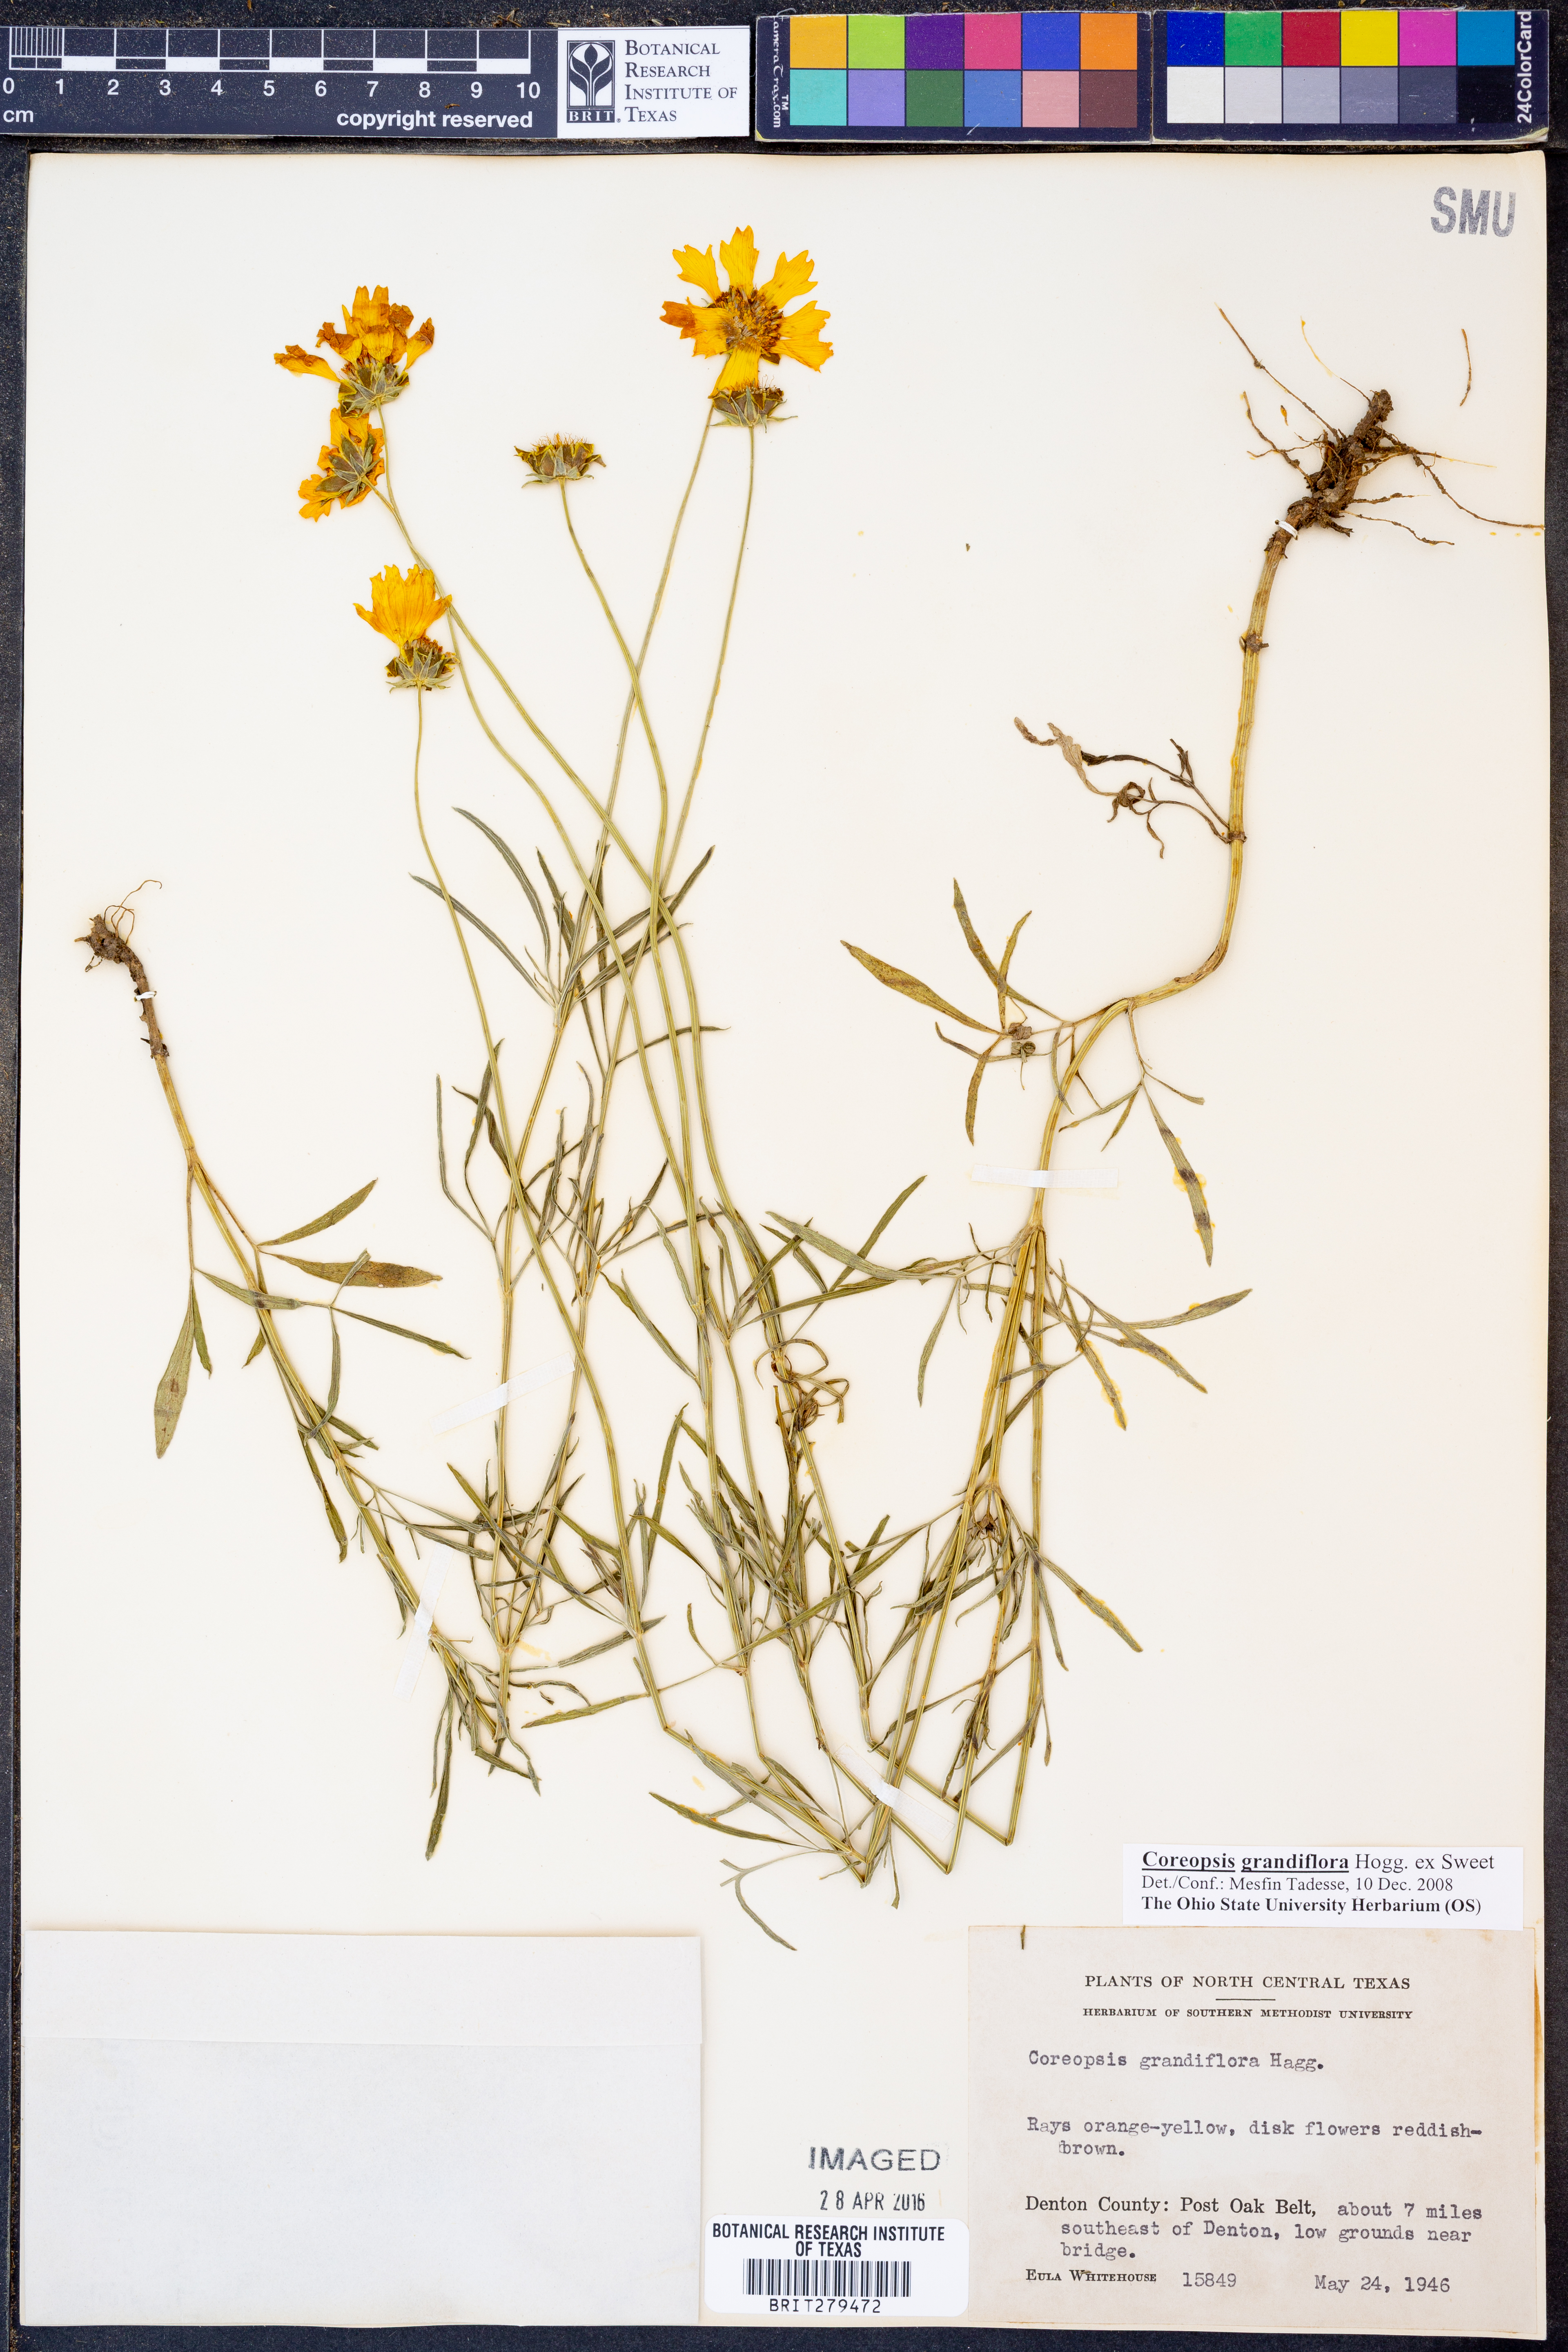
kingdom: Plantae
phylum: Tracheophyta
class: Magnoliopsida
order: Asterales
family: Asteraceae
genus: Coreopsis
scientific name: Coreopsis grandiflora
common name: Large-flowered tickseed
